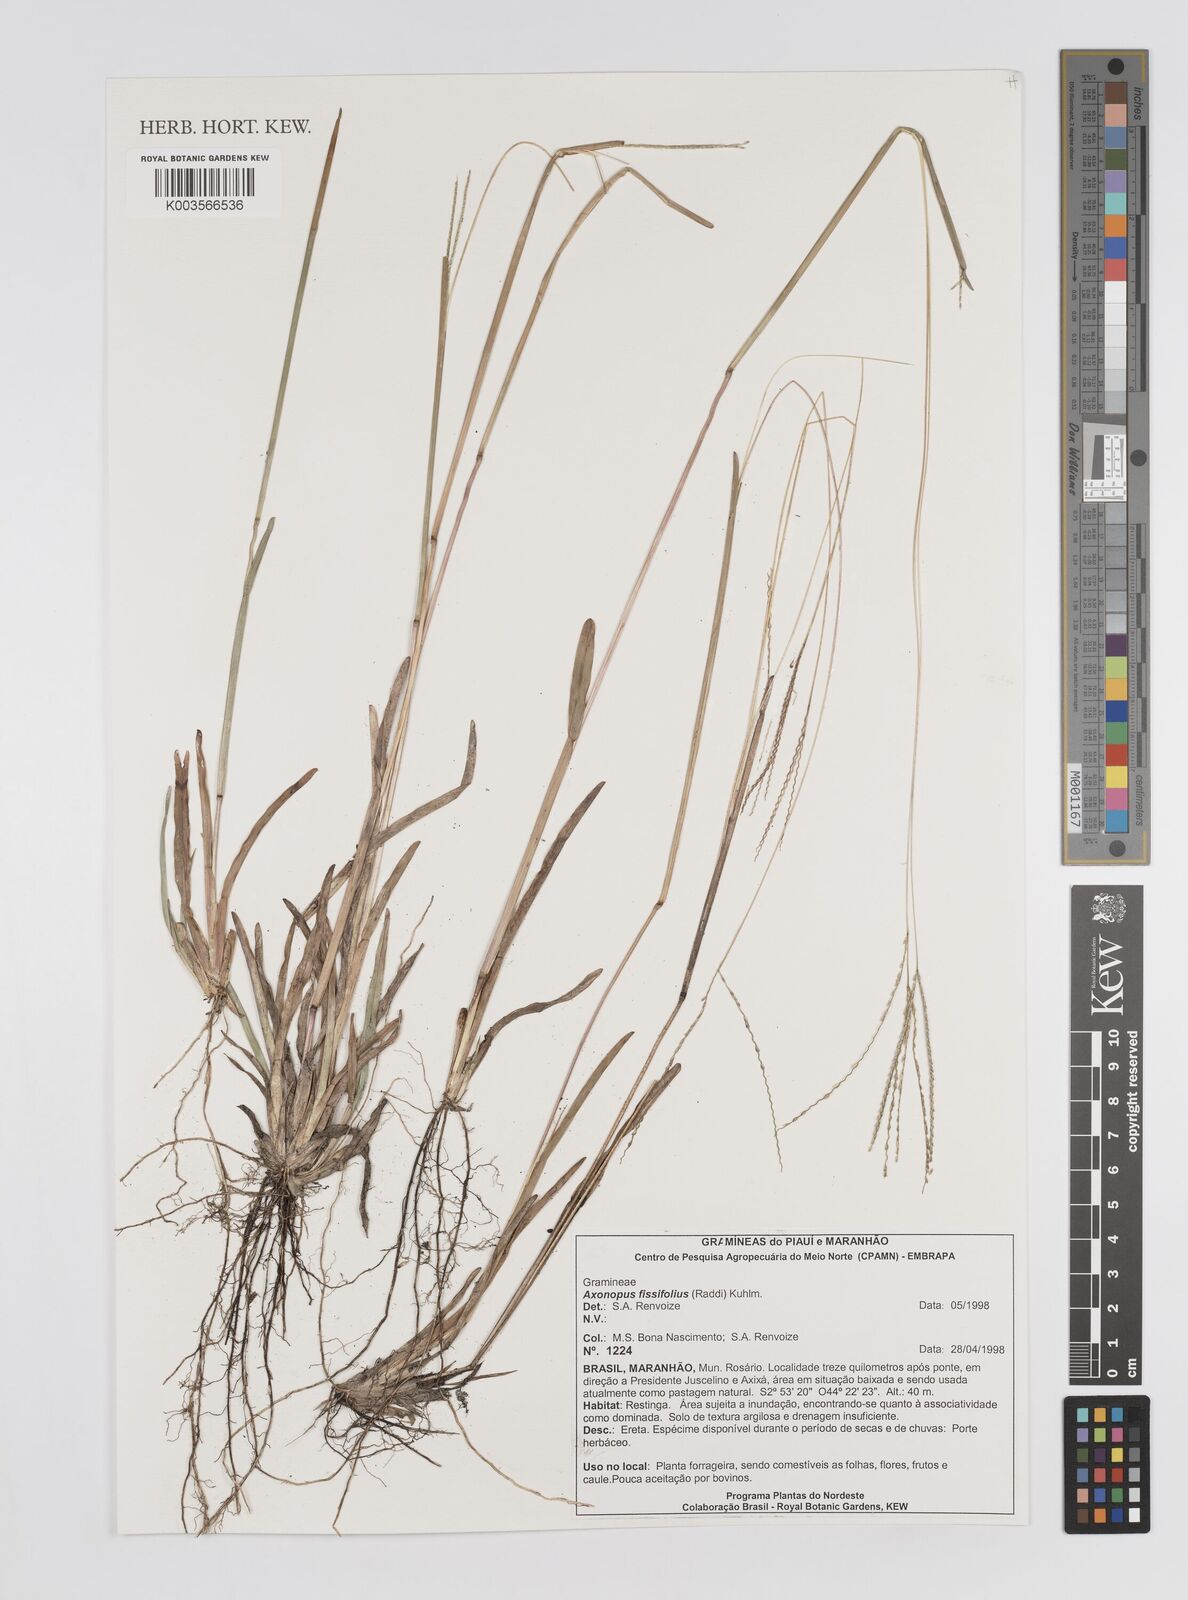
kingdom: Plantae
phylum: Tracheophyta
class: Liliopsida
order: Poales
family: Poaceae
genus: Axonopus
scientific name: Axonopus fissifolius
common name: Common carpetgrass
